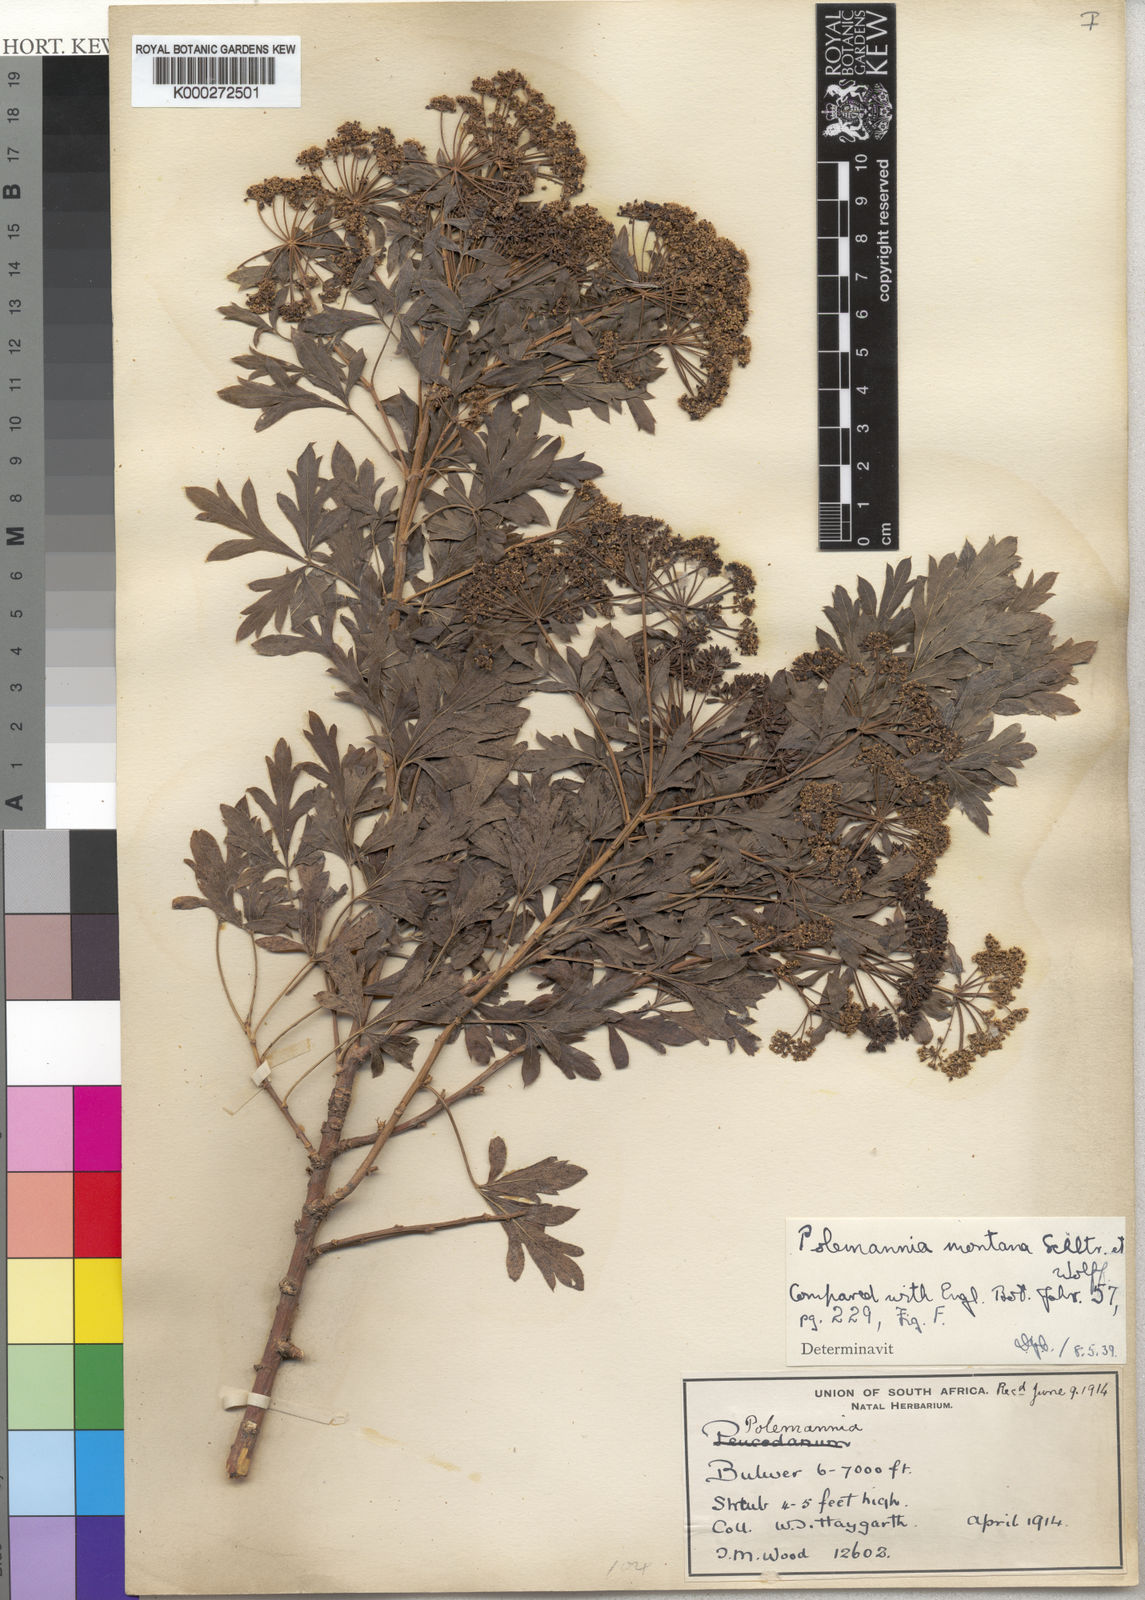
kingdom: Plantae
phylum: Tracheophyta
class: Magnoliopsida
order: Apiales
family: Apiaceae
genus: Polemannia
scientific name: Polemannia montana
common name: Mountain false parsley-tree
